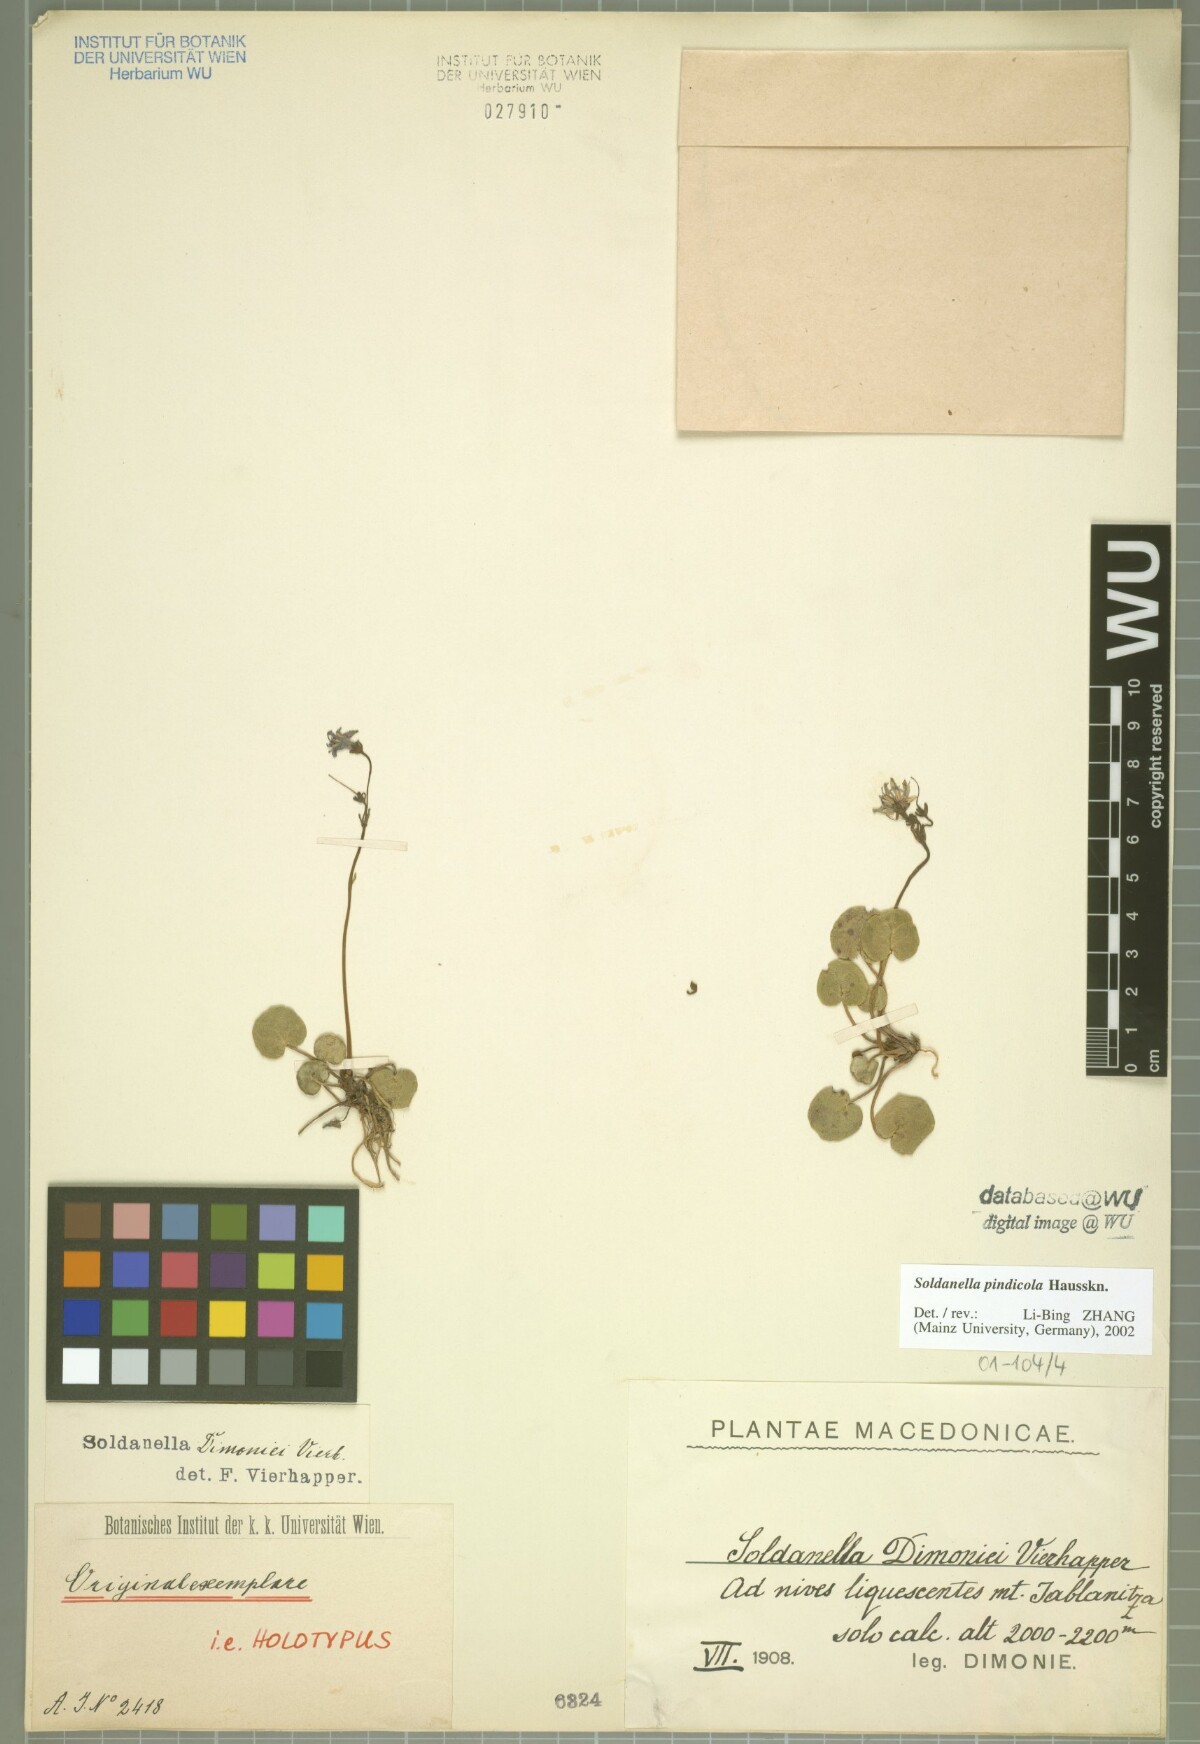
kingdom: Plantae
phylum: Tracheophyta
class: Magnoliopsida
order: Ericales
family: Primulaceae
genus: Soldanella
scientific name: Soldanella pindicola
